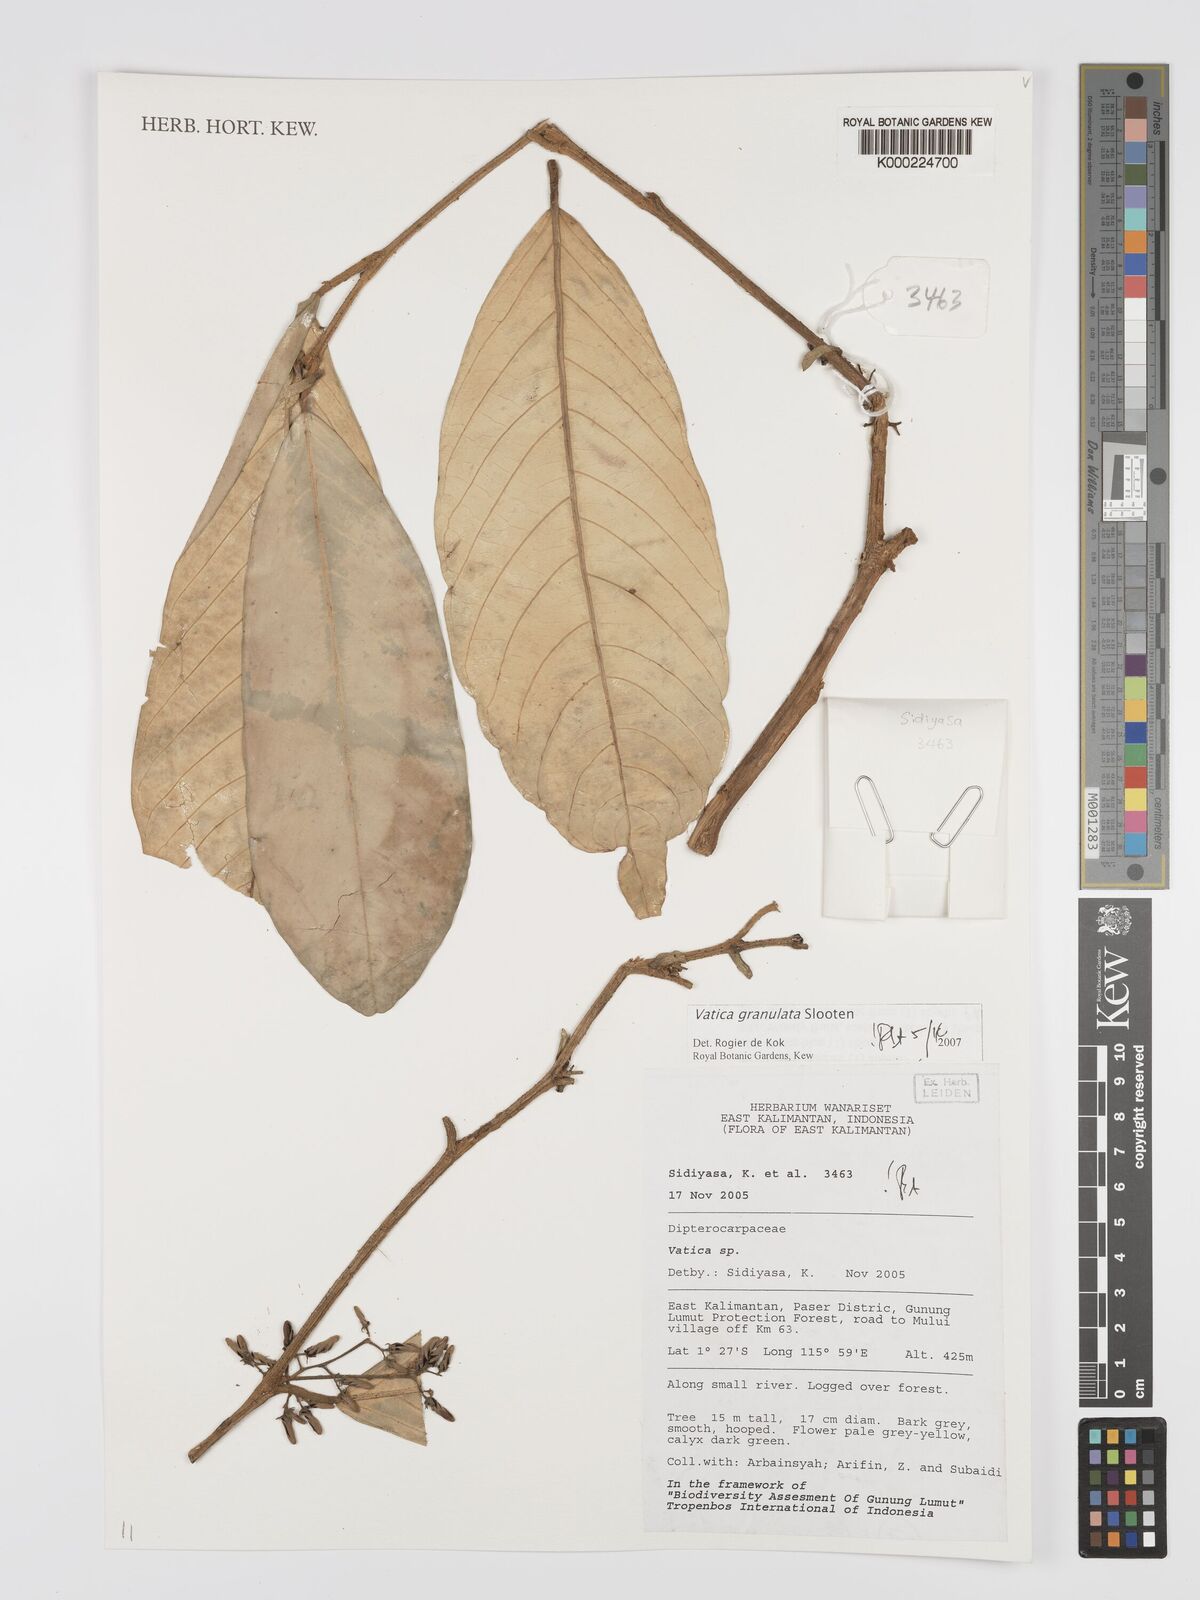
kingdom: Plantae
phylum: Tracheophyta
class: Magnoliopsida
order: Malvales
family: Dipterocarpaceae
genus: Vatica
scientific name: Vatica granulata
